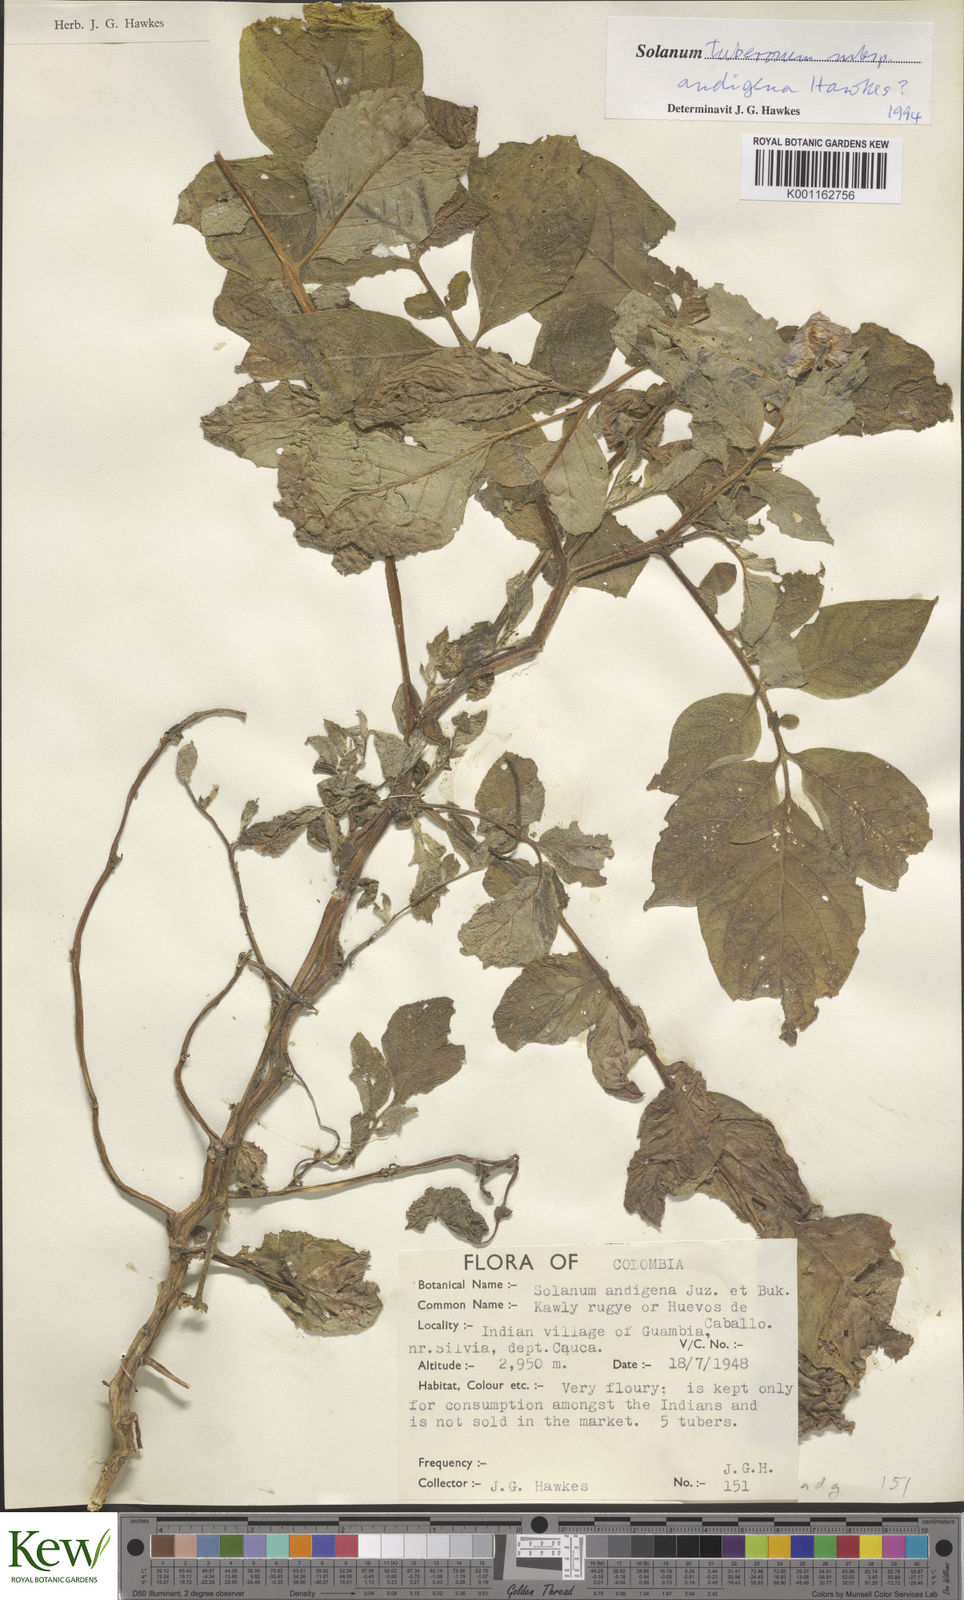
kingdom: Plantae
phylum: Tracheophyta
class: Magnoliopsida
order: Solanales
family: Solanaceae
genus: Solanum
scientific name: Solanum tuberosum
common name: Potato
